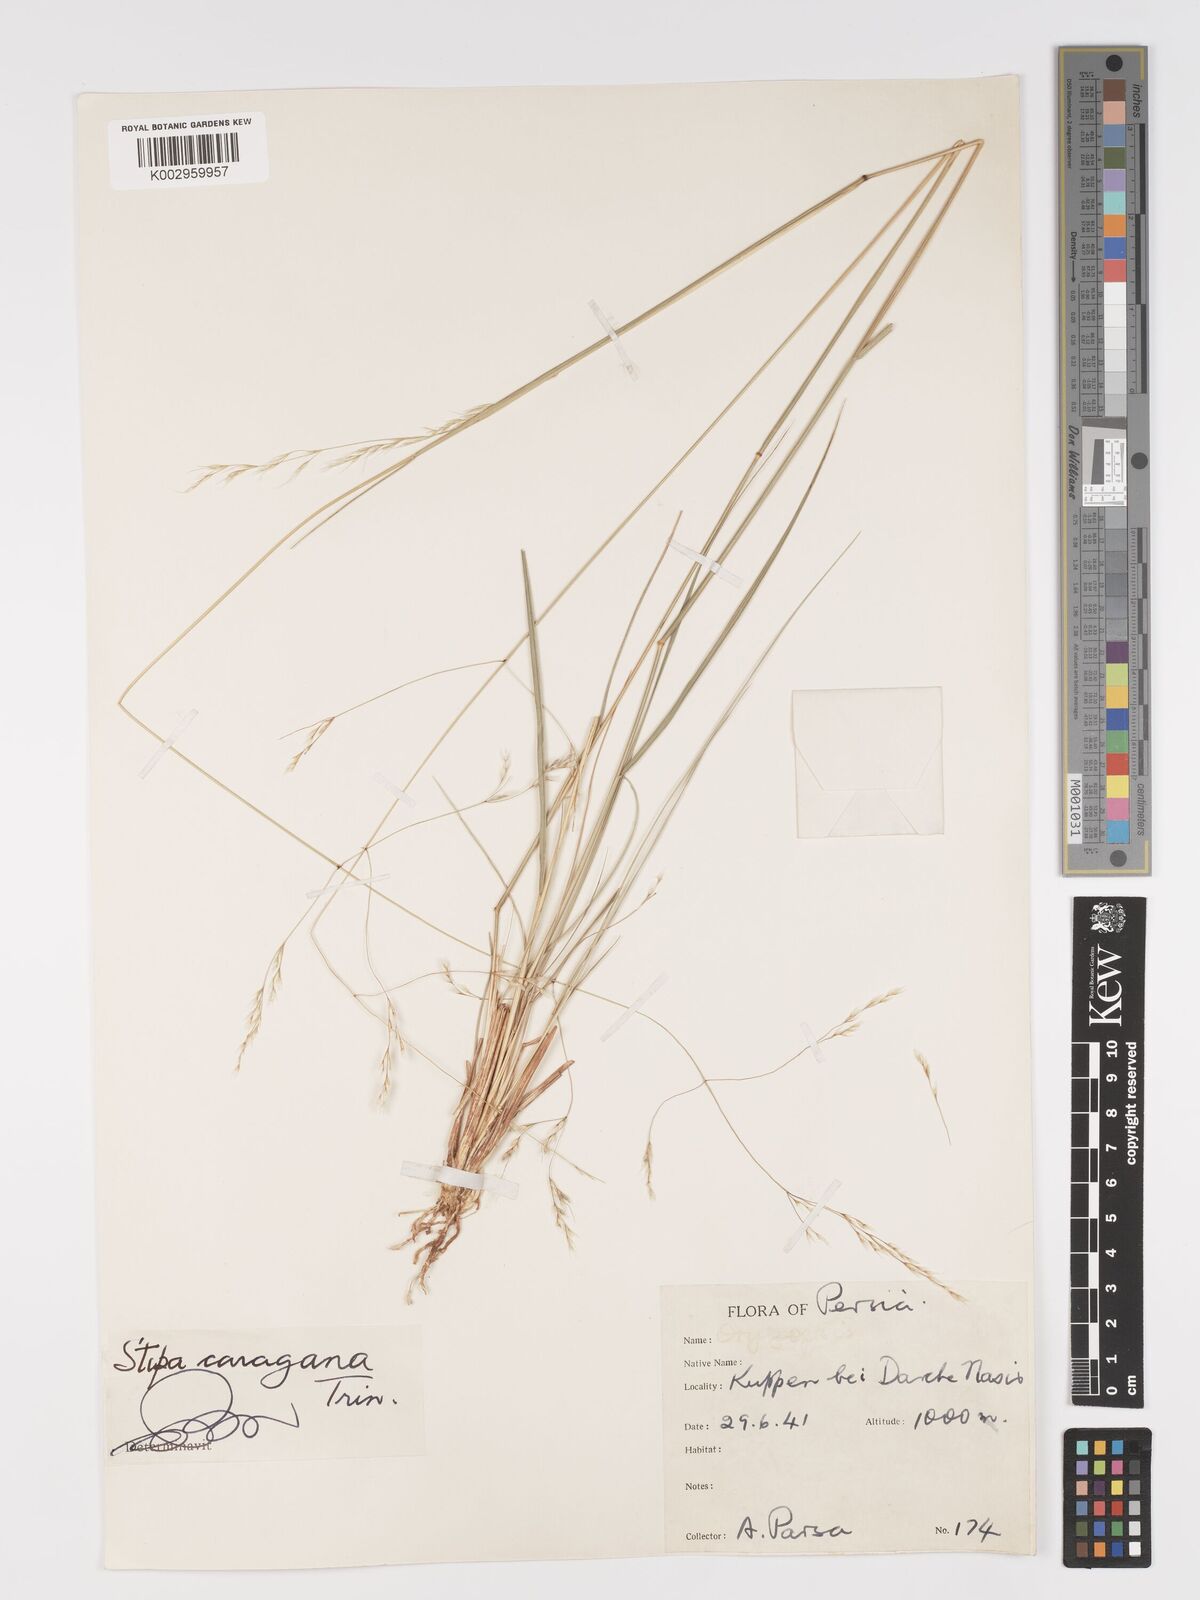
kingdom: Plantae
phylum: Tracheophyta
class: Liliopsida
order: Poales
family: Poaceae
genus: Stipa
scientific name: Stipa conferta
